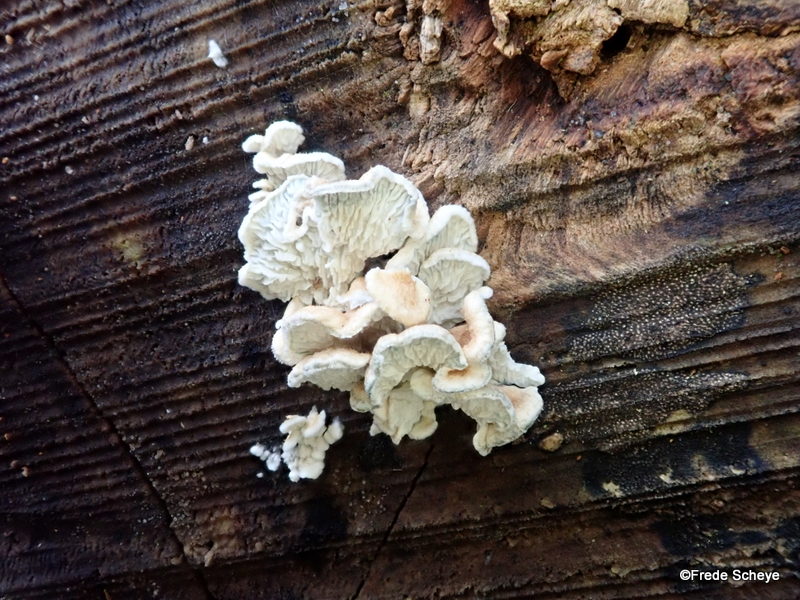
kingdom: Fungi
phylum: Basidiomycota
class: Agaricomycetes
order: Amylocorticiales
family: Amylocorticiaceae
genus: Plicaturopsis
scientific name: Plicaturopsis crispa
